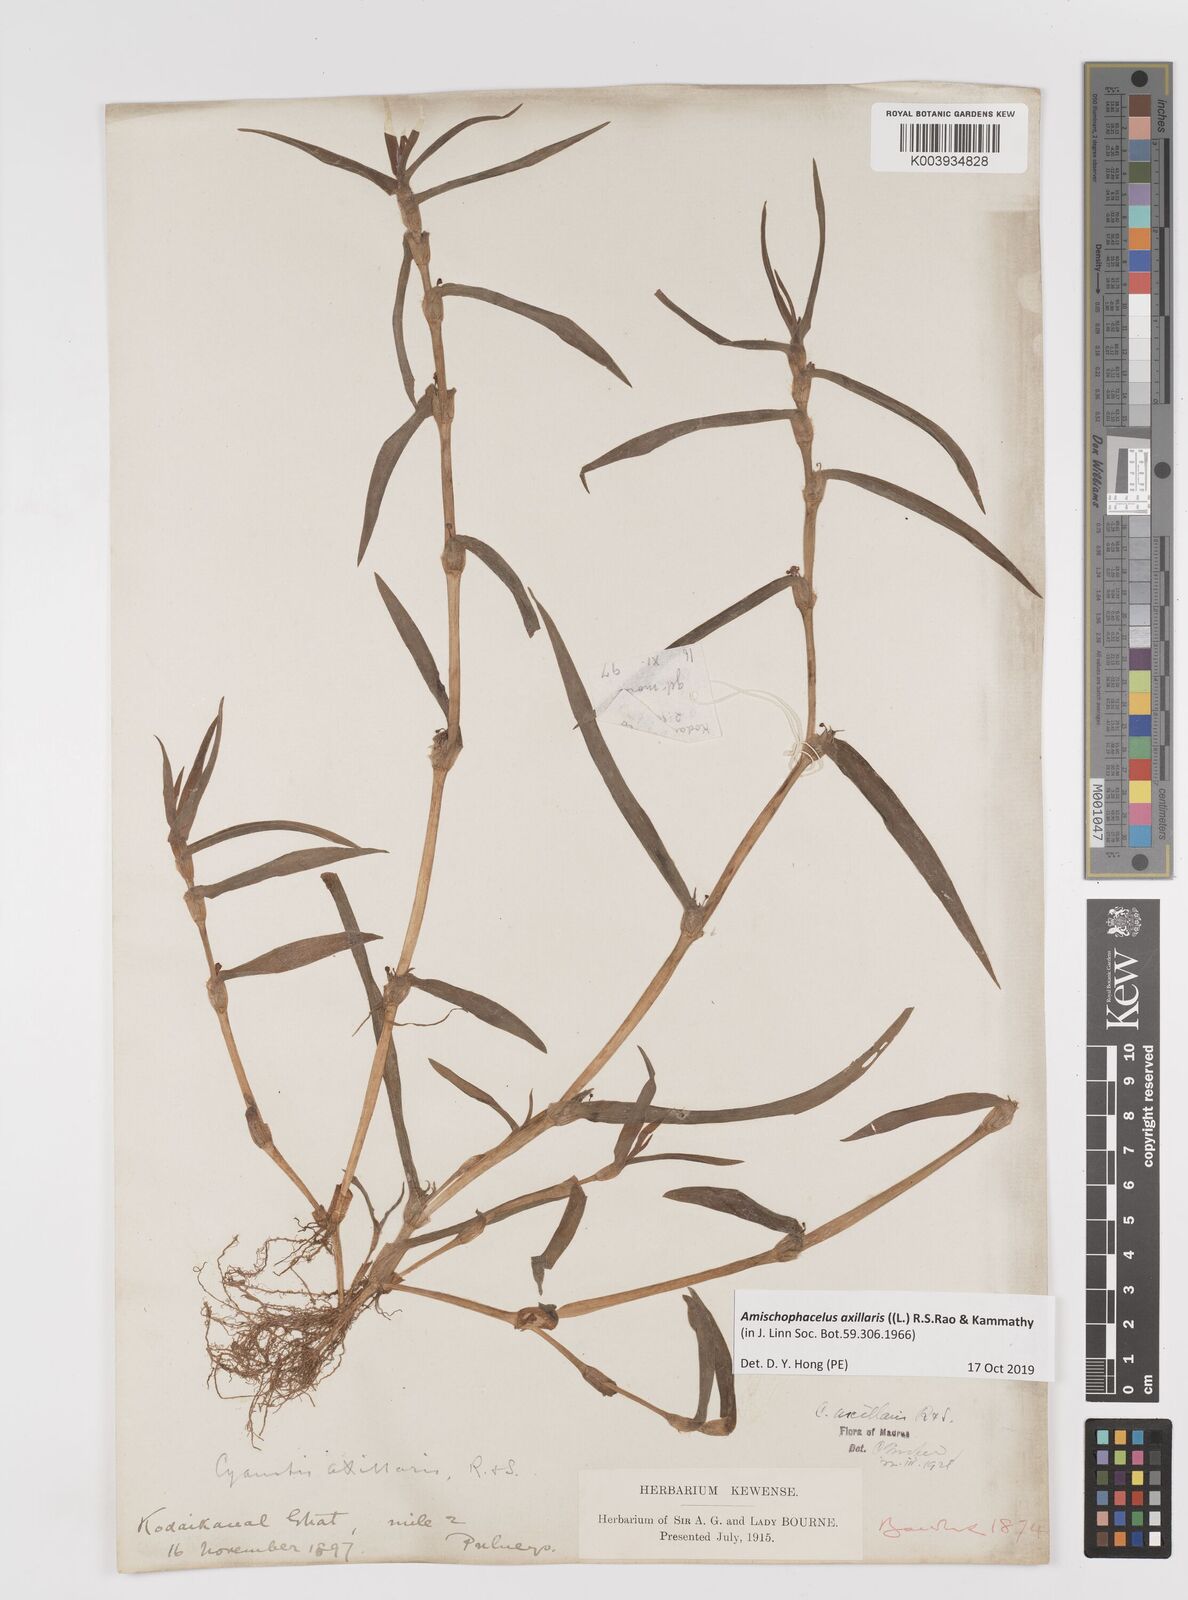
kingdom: Plantae
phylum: Tracheophyta
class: Liliopsida
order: Commelinales
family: Commelinaceae
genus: Cyanotis
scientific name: Cyanotis axillaris
